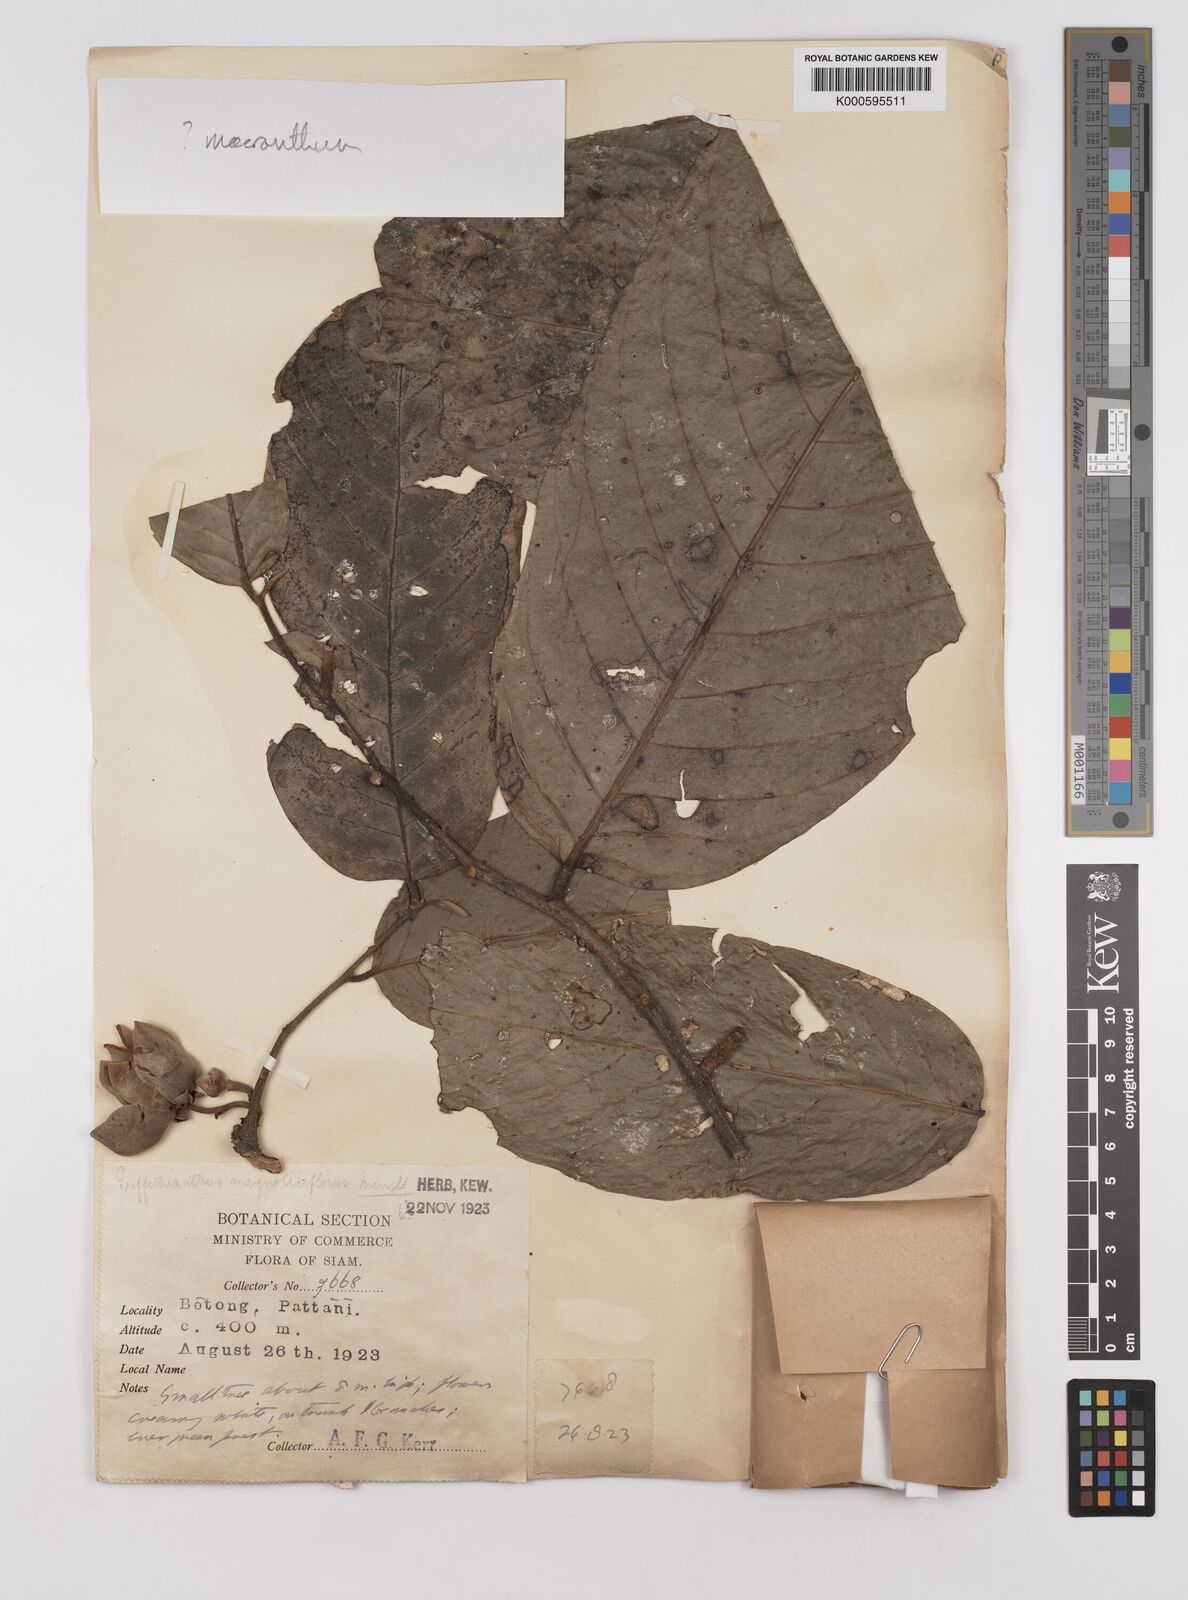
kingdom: Plantae
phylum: Tracheophyta
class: Magnoliopsida
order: Magnoliales
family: Annonaceae
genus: Enicosanthum
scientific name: Enicosanthum
